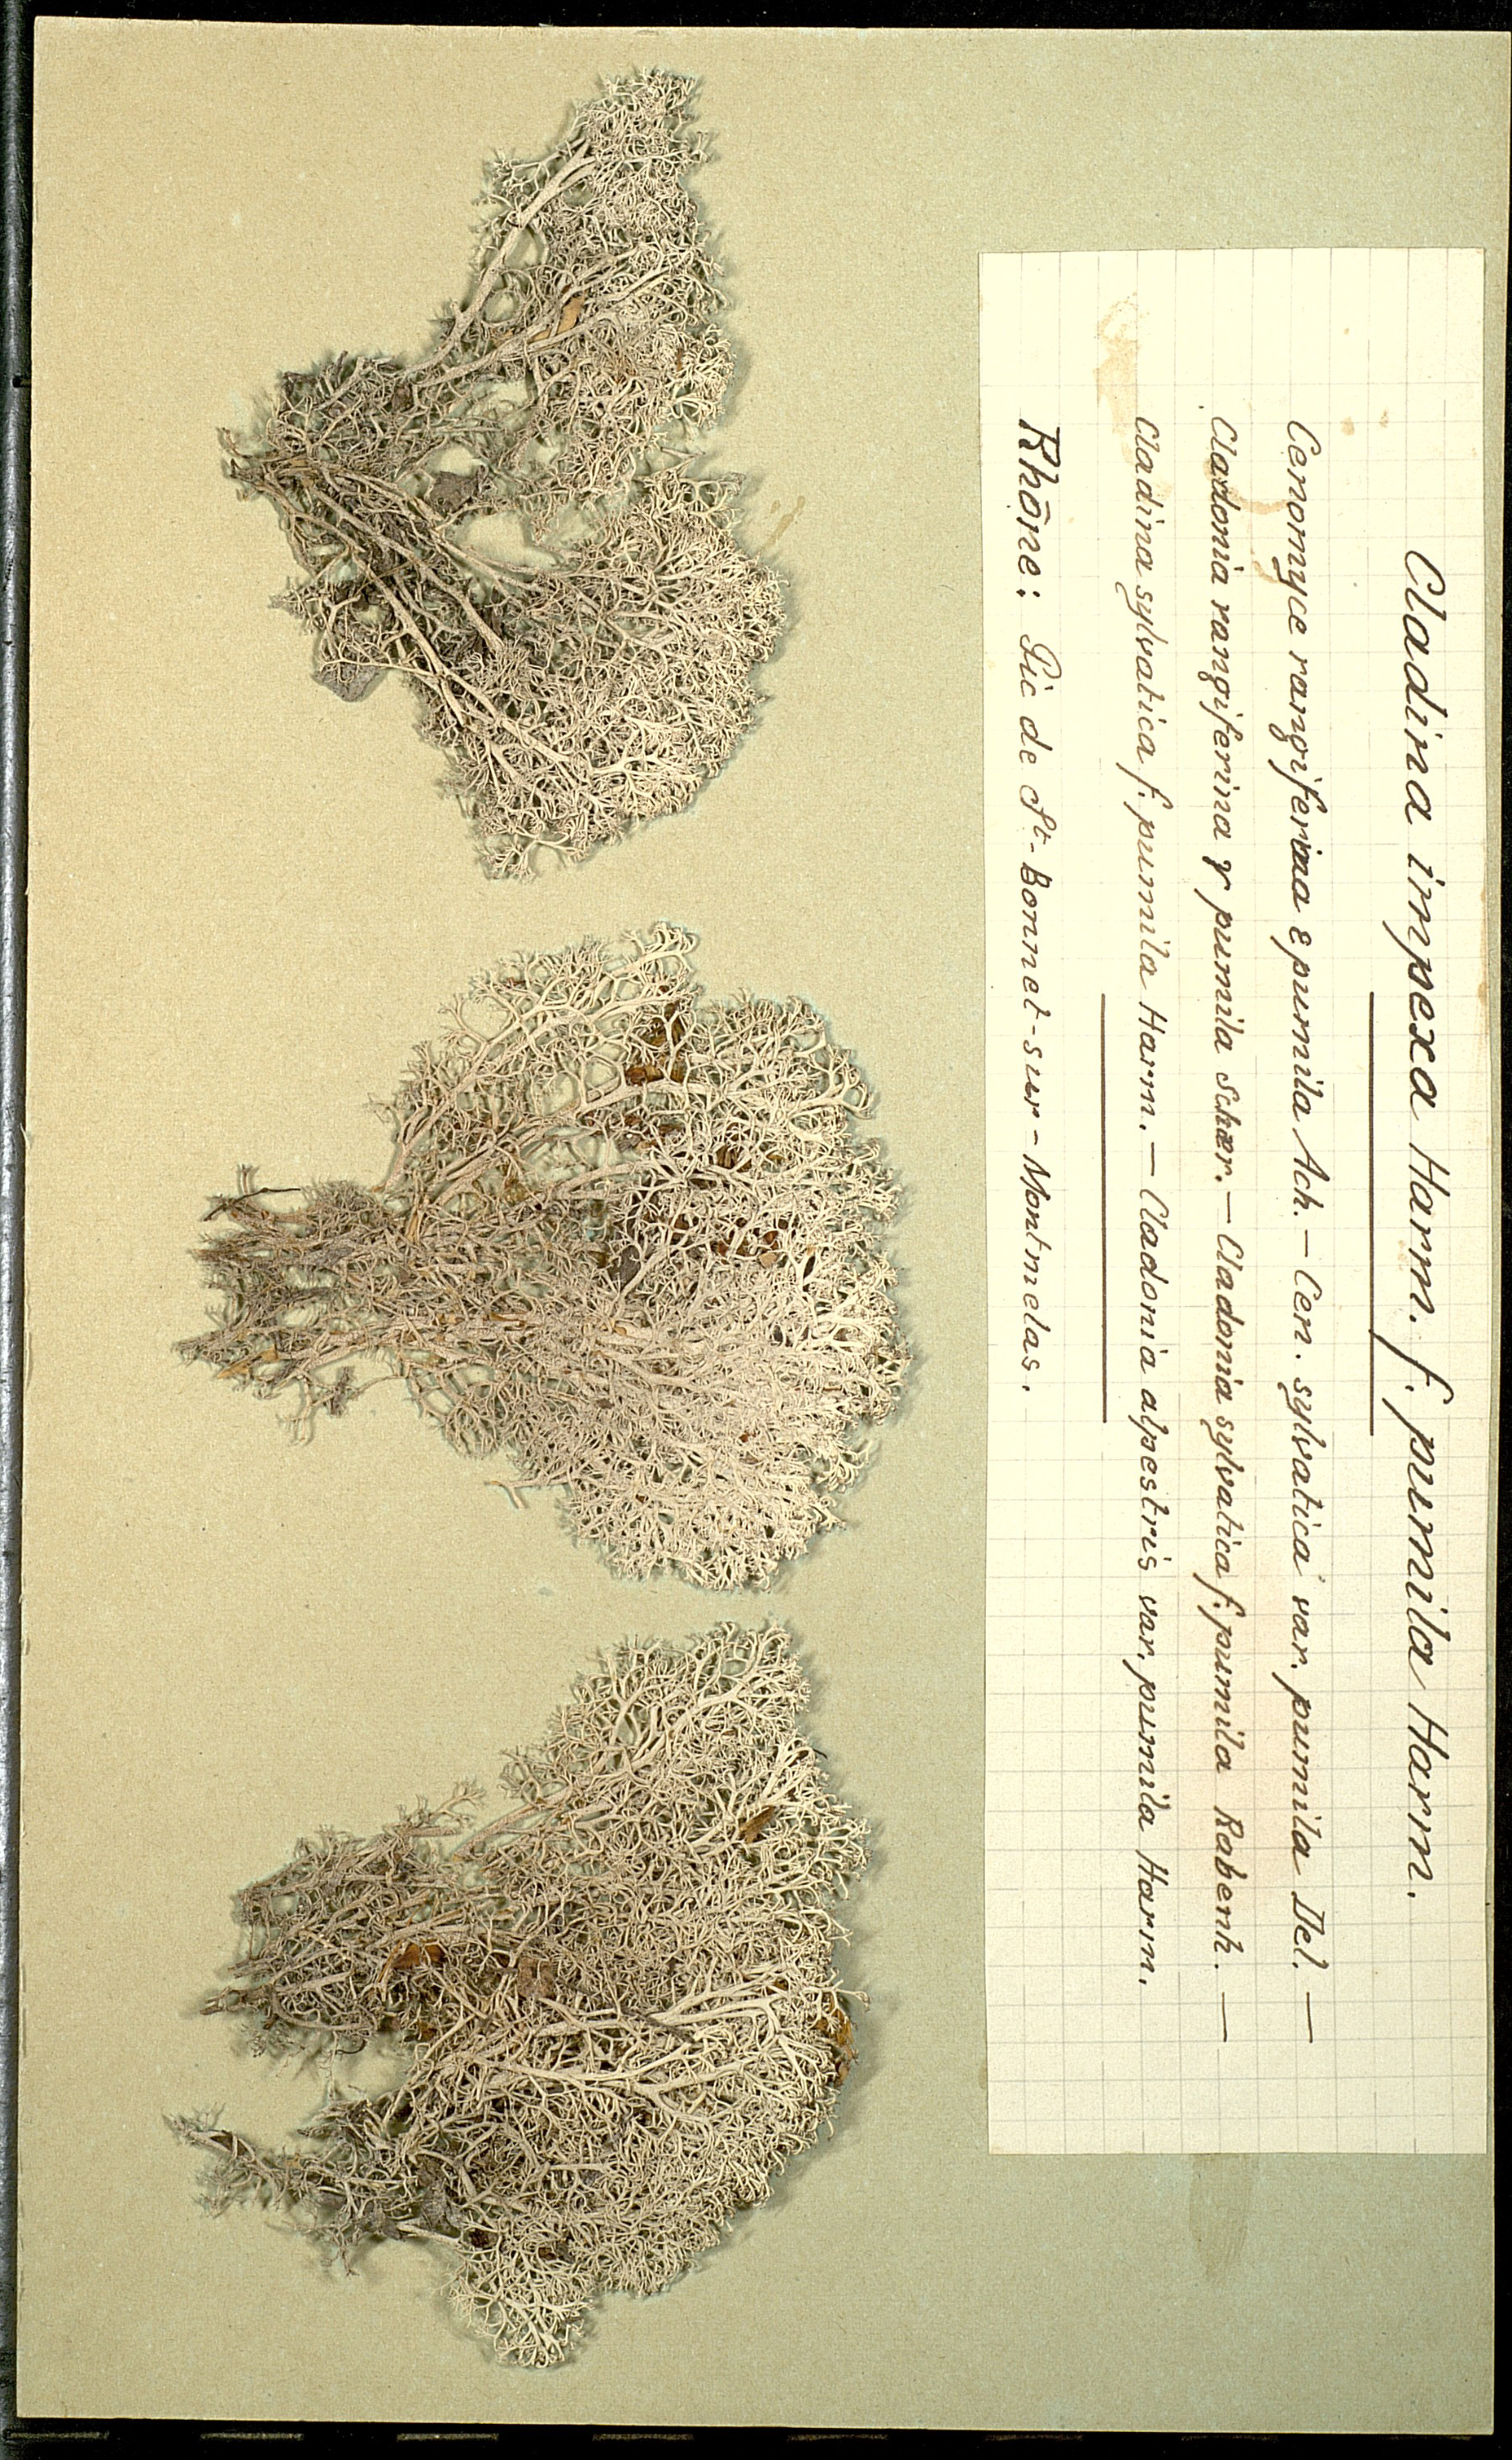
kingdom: Fungi
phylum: Ascomycota
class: Lecanoromycetes
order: Lecanorales
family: Cladoniaceae
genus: Cladonia
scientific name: Cladonia portentosa
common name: Reindeer lichen
